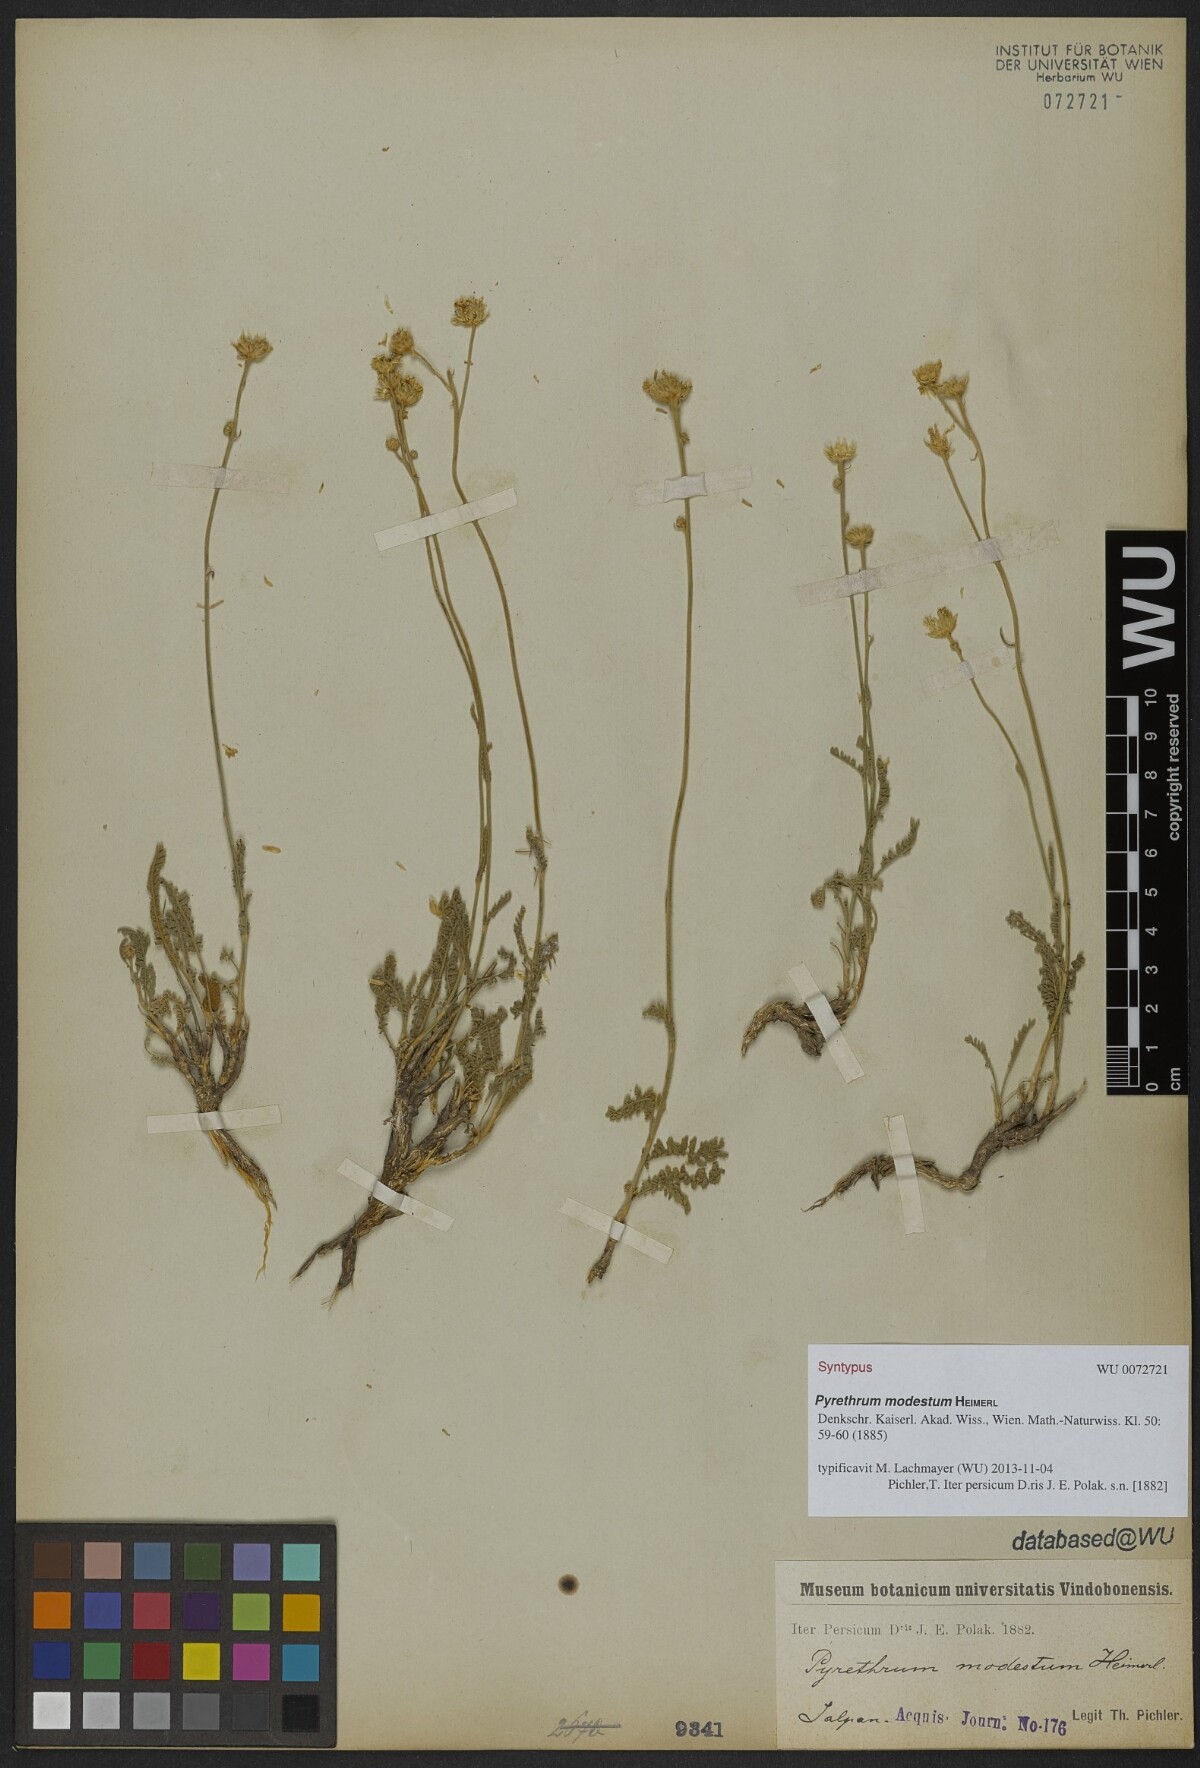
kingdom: Plantae
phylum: Tracheophyta
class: Magnoliopsida
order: Asterales
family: Asteraceae
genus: Tanacetum
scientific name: Tanacetum canescens
